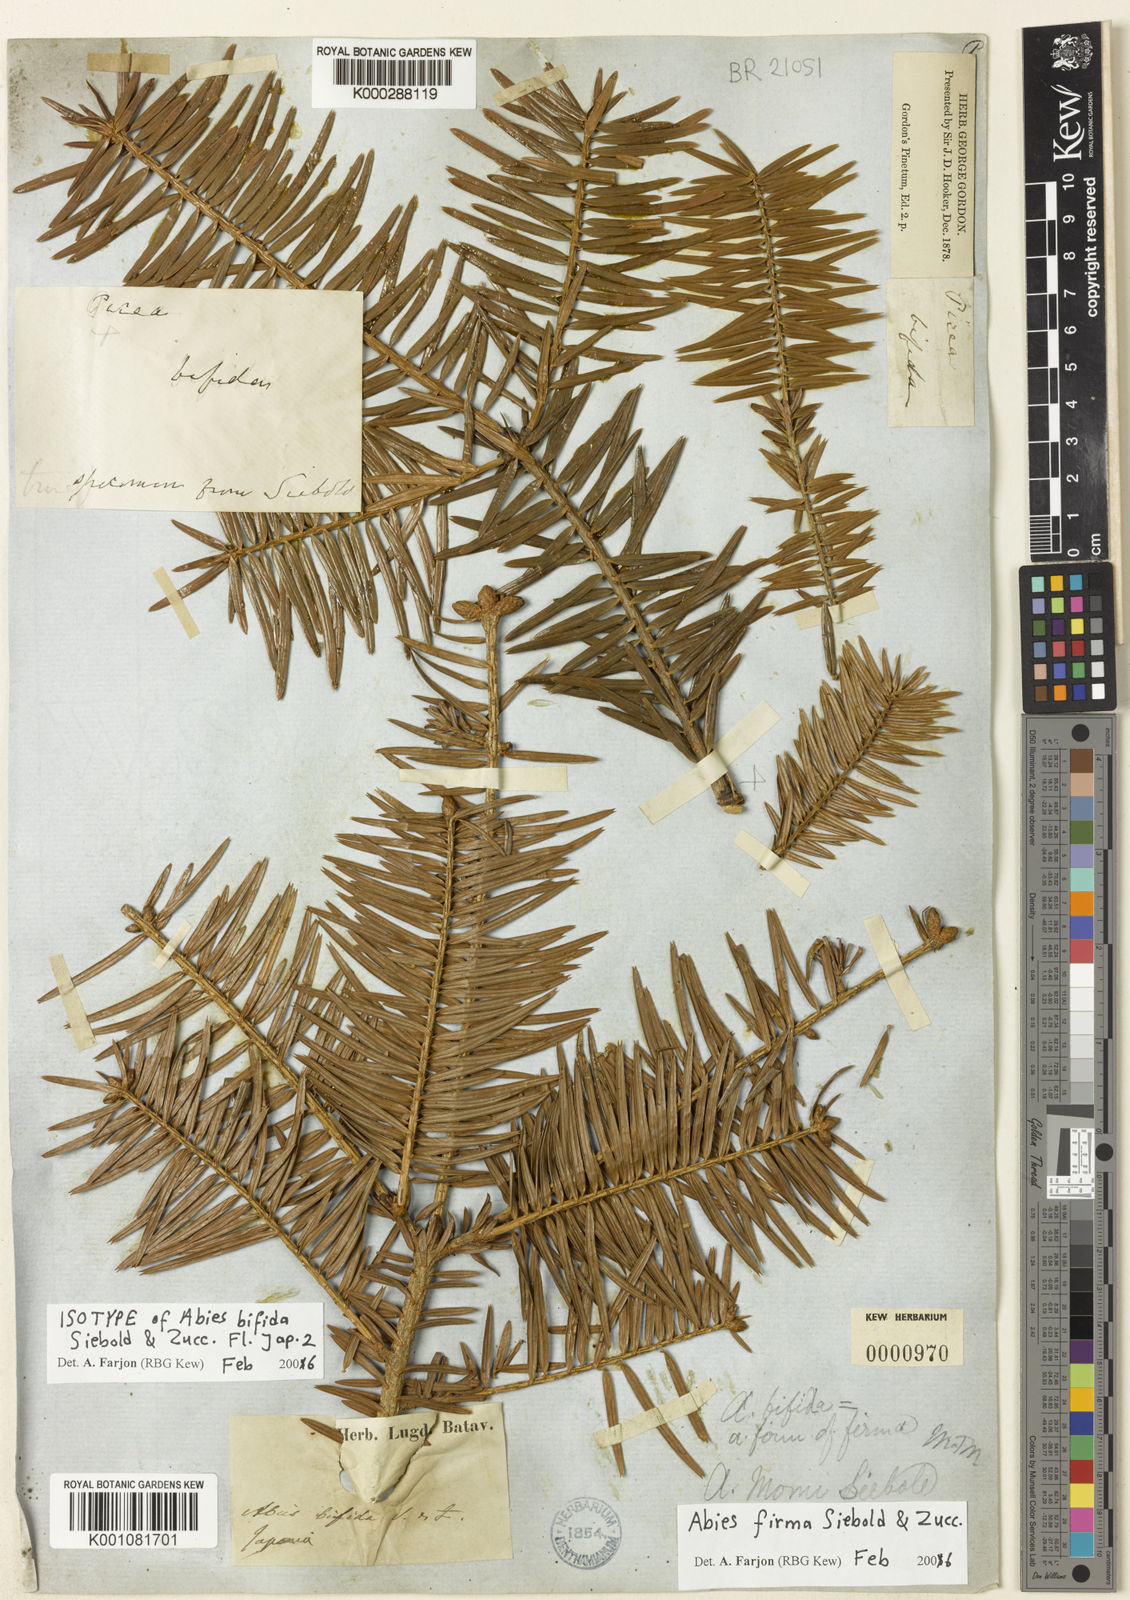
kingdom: Plantae
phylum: Tracheophyta
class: Pinopsida
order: Pinales
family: Pinaceae
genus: Abies
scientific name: Abies firma
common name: Momi fir
